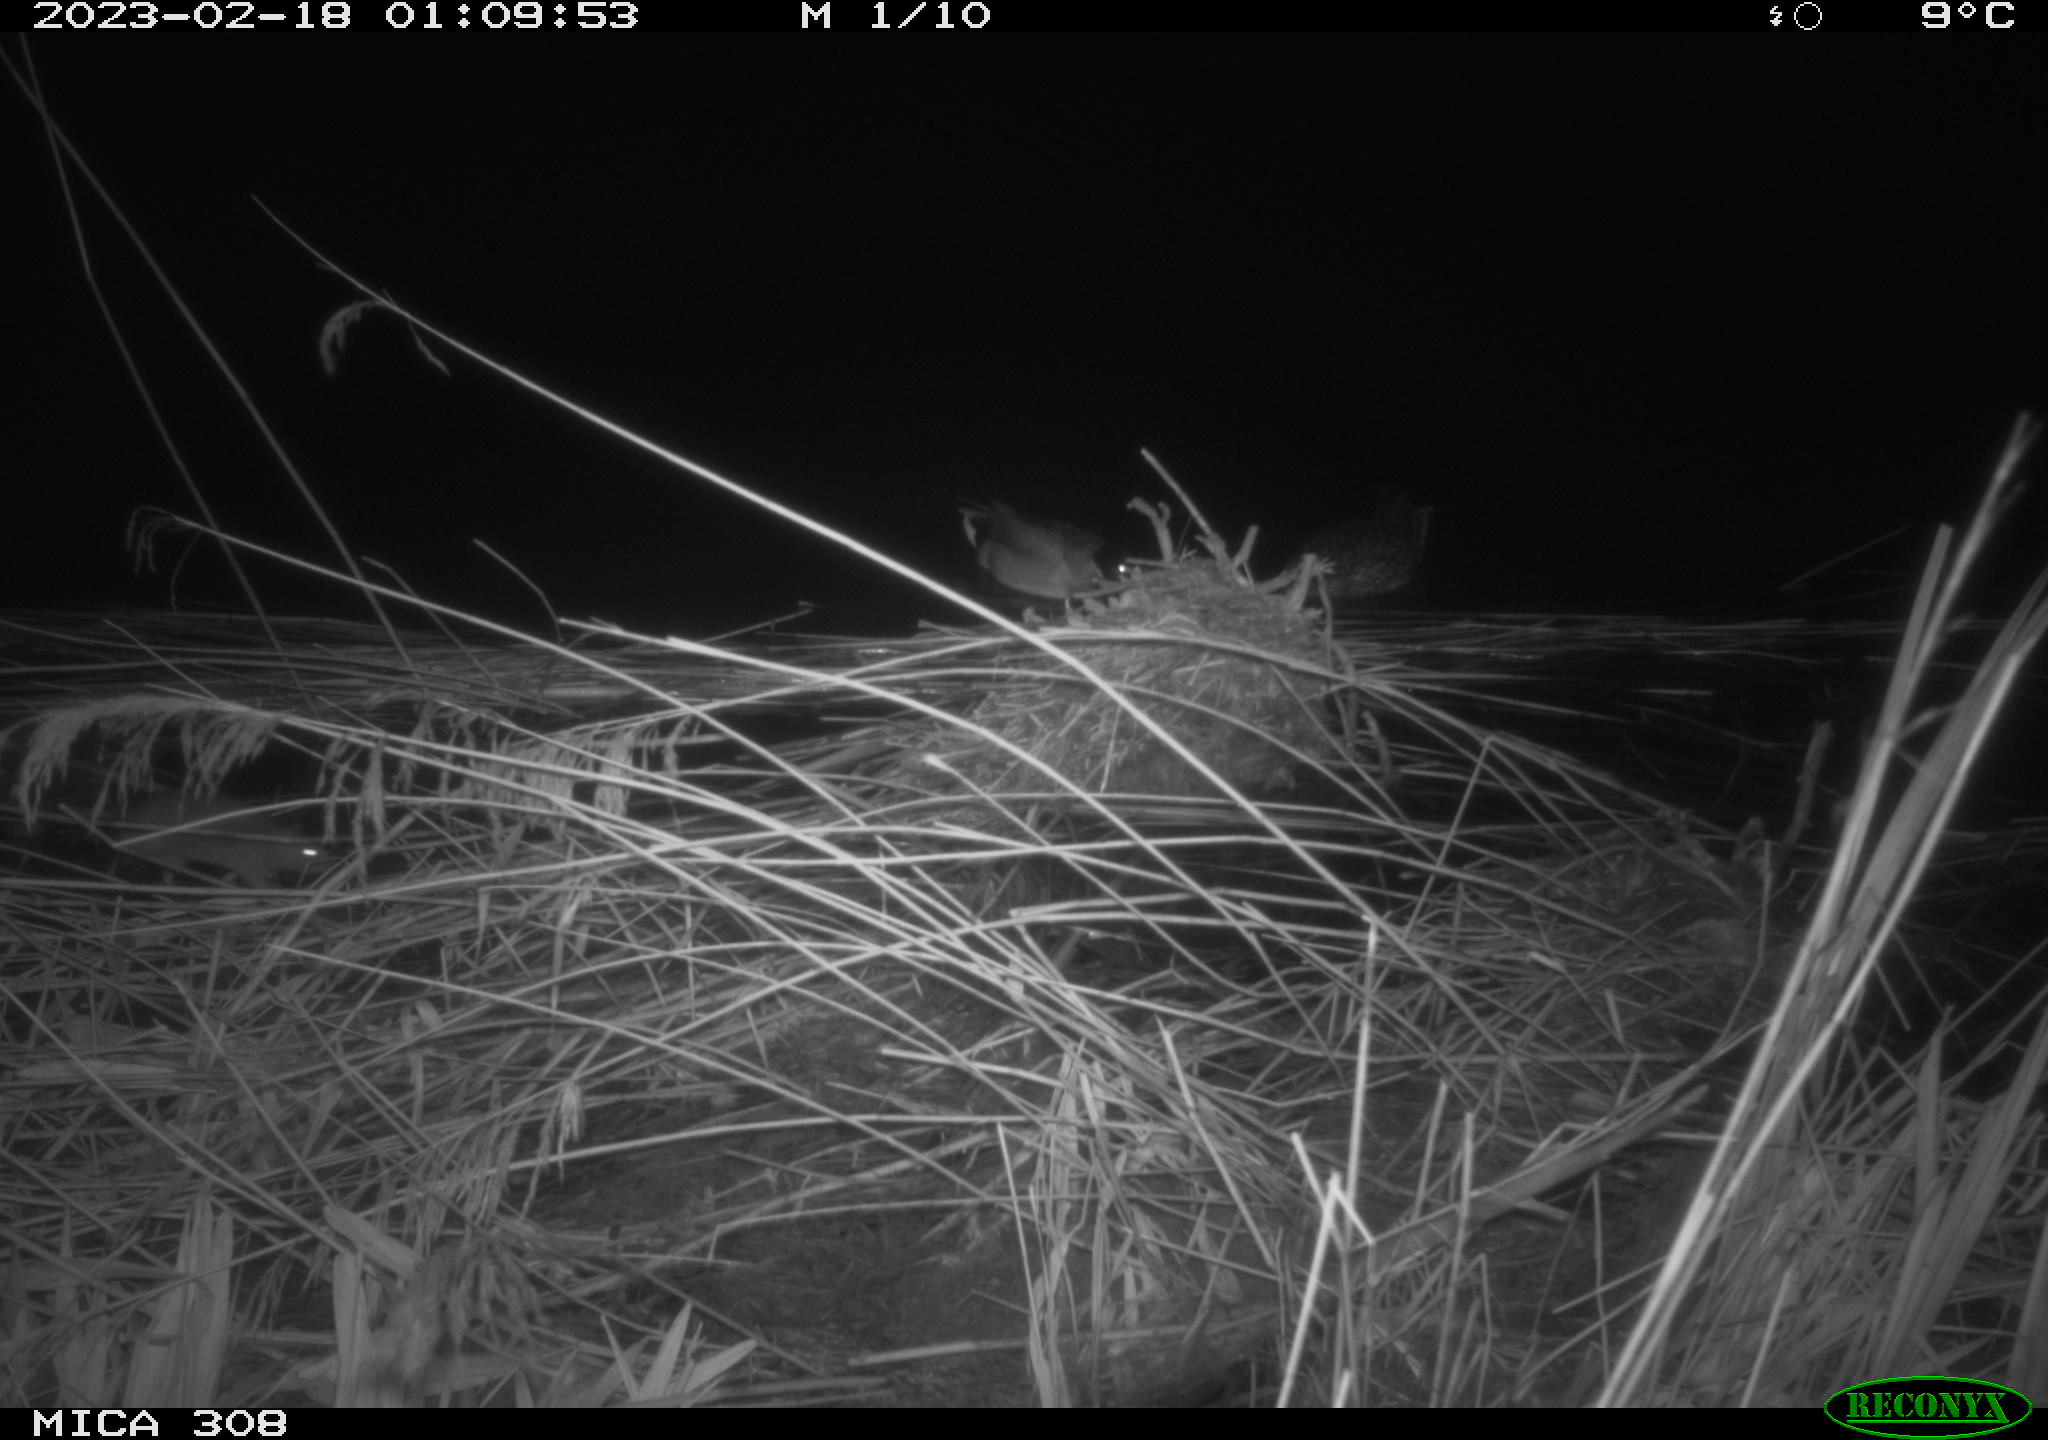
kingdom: Animalia
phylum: Chordata
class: Mammalia
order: Rodentia
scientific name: Rodentia
